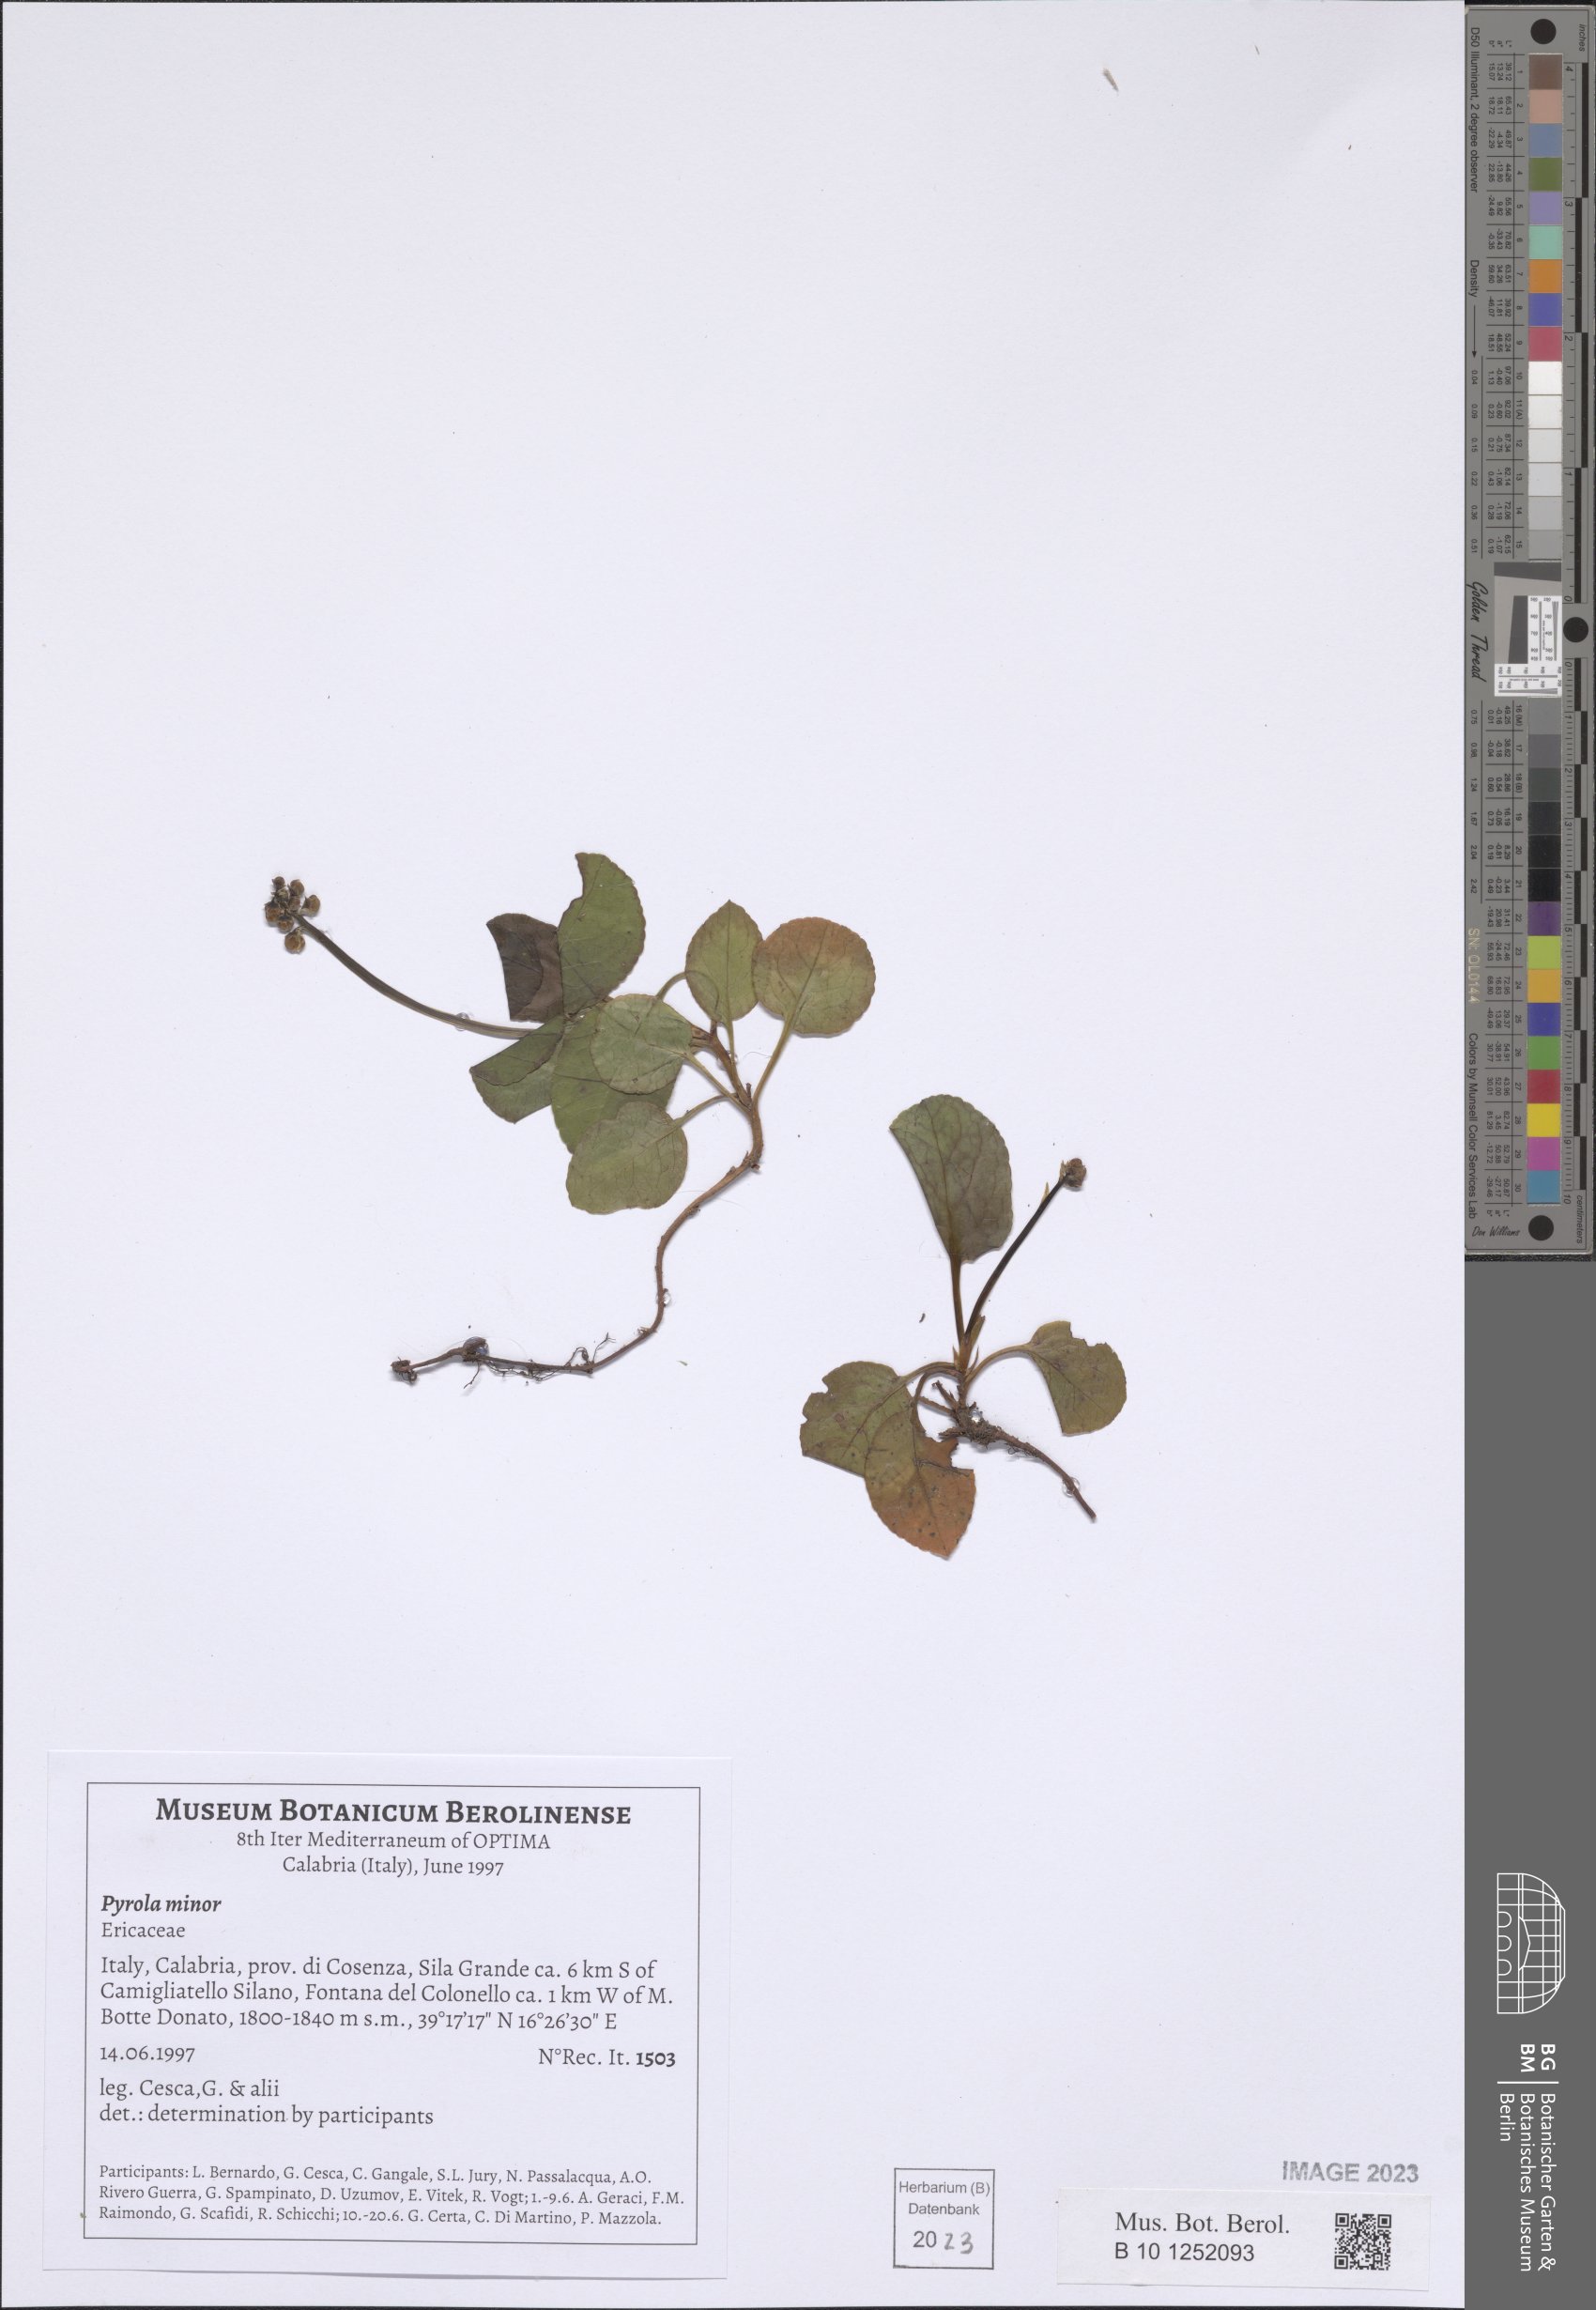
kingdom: Plantae
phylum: Tracheophyta
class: Magnoliopsida
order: Ericales
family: Ericaceae
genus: Pyrola
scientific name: Pyrola minor
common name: Common wintergreen
